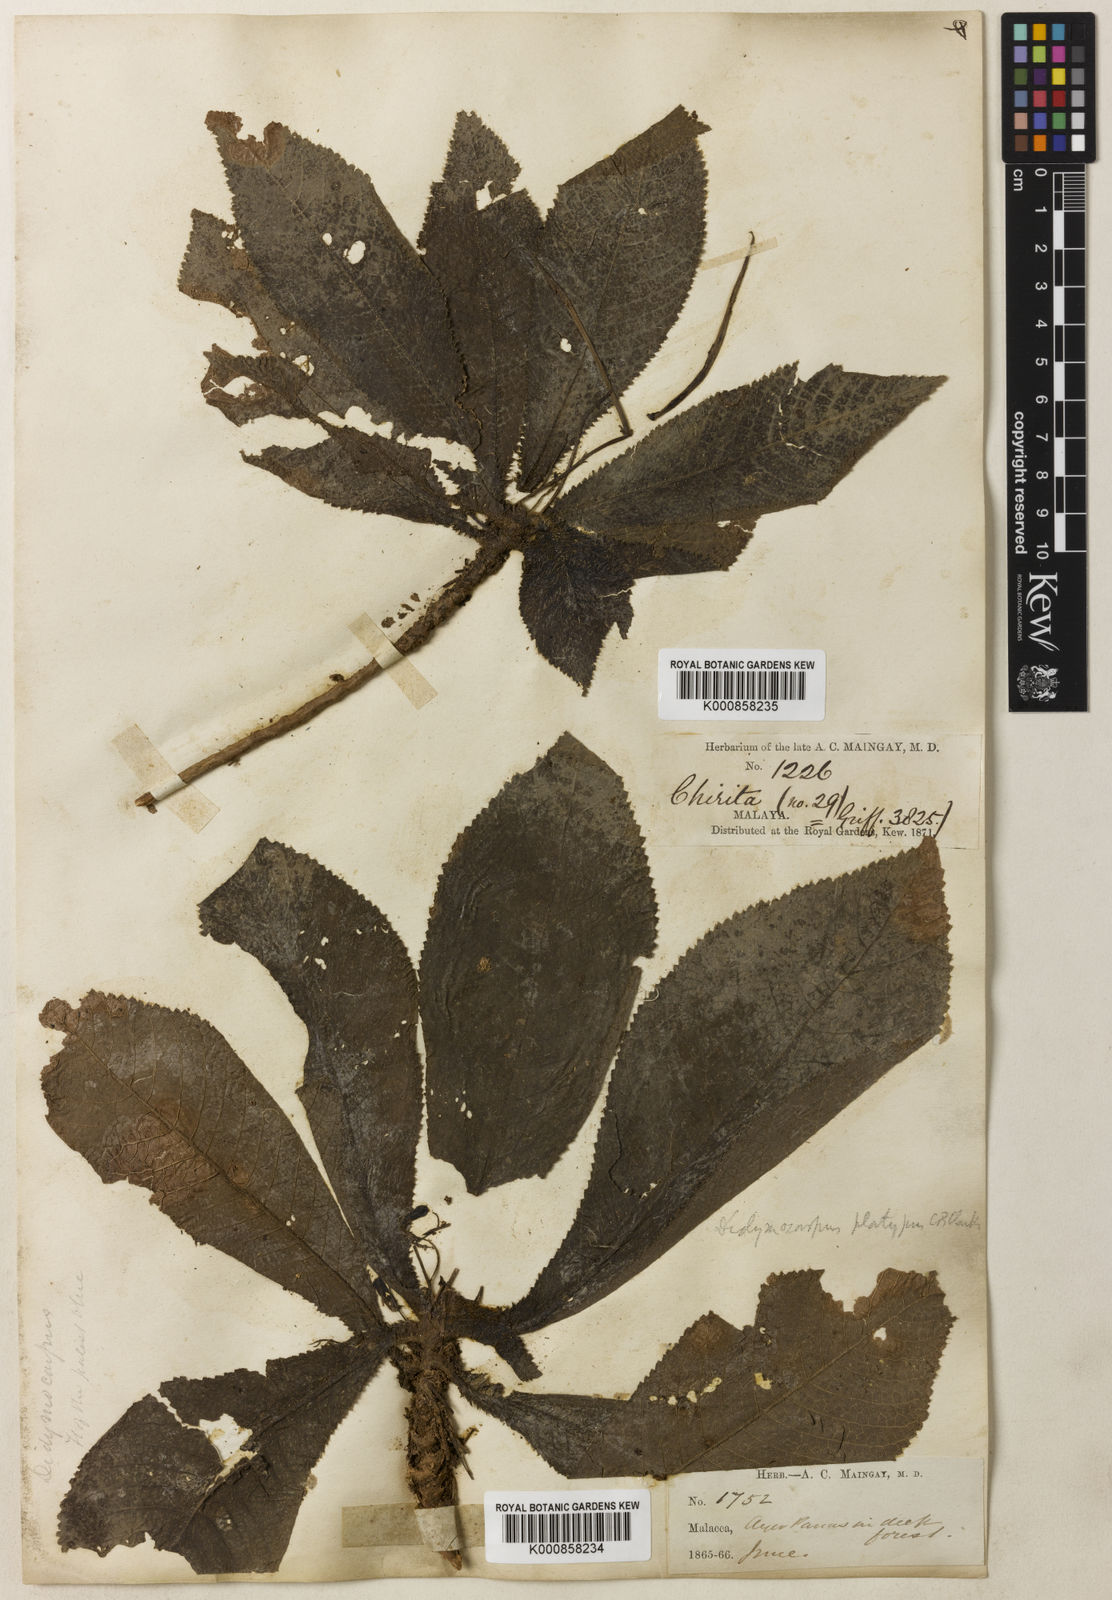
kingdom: Plantae
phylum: Tracheophyta
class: Magnoliopsida
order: Lamiales
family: Gesneriaceae
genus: Codonoboea
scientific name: Codonoboea platypus
